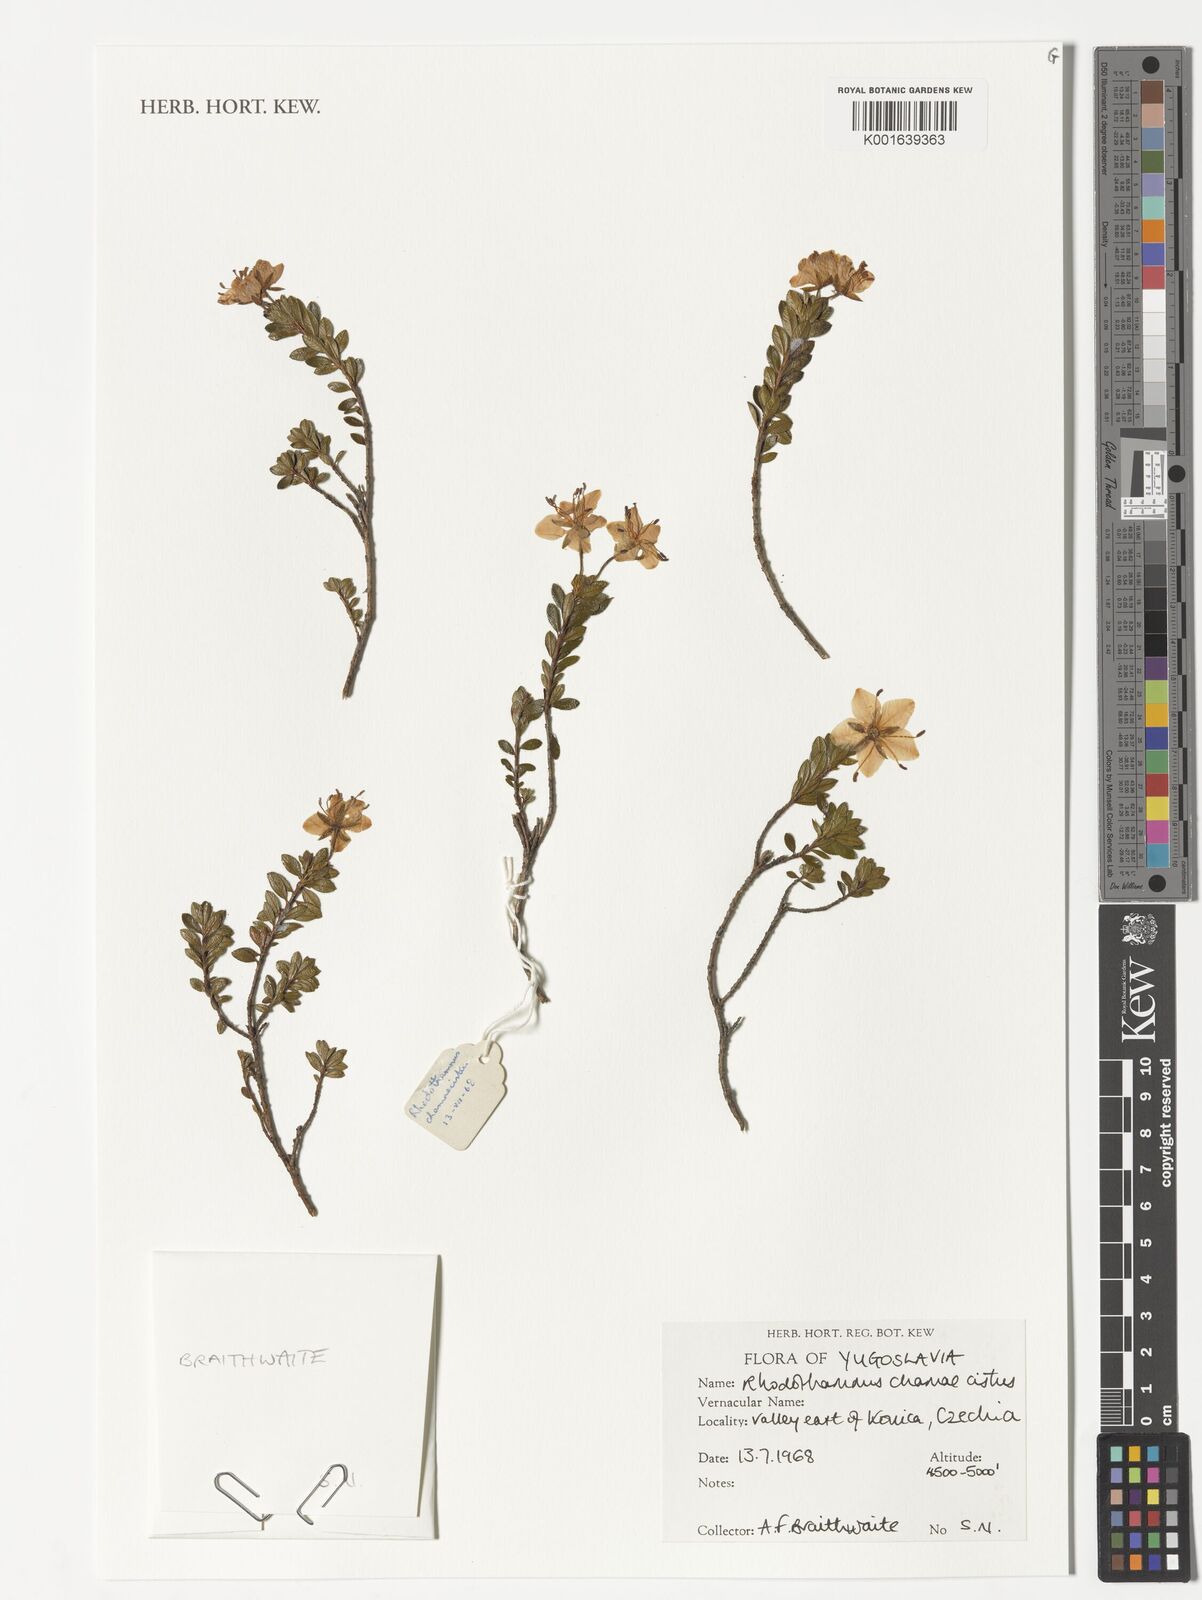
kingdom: Plantae
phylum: Tracheophyta
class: Magnoliopsida
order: Ericales
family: Ericaceae
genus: Rhodothamnus
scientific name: Rhodothamnus chamaecistus
